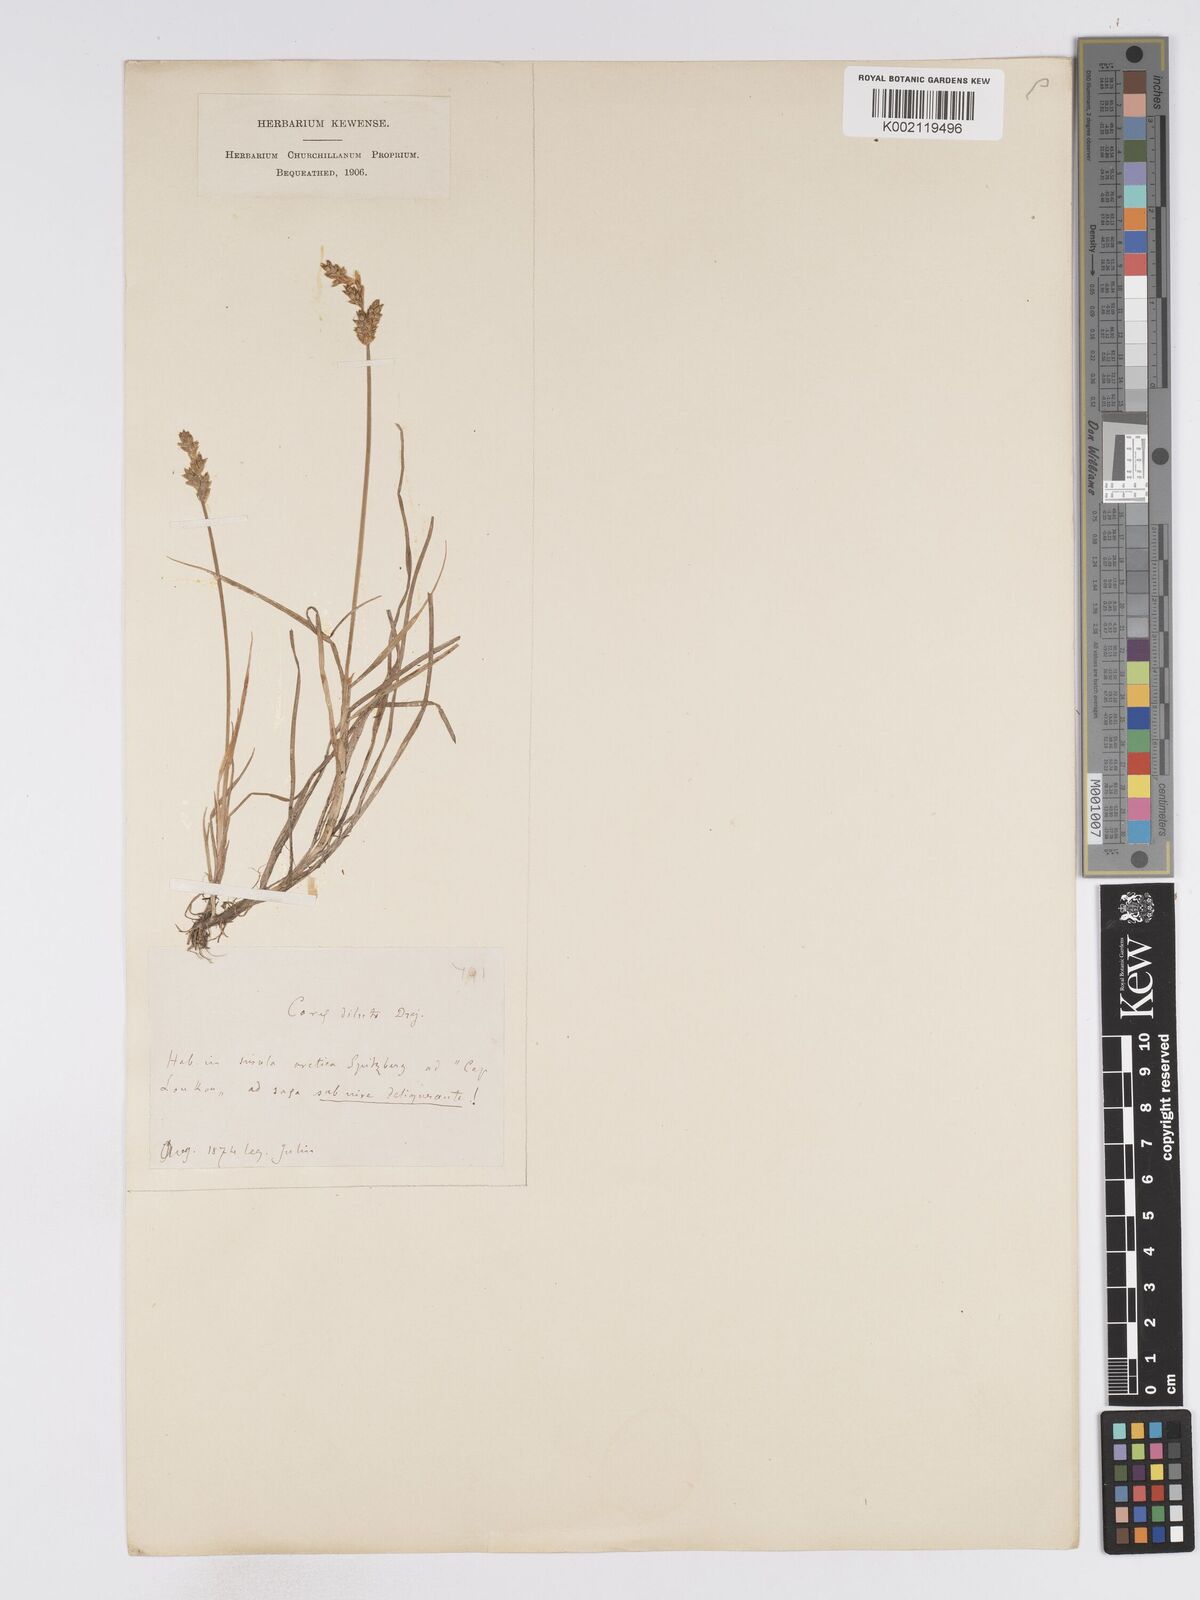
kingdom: Plantae
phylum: Tracheophyta
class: Liliopsida
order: Poales
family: Cyperaceae
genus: Carex
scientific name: Carex mackenziei
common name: Mackenzie's sedge
